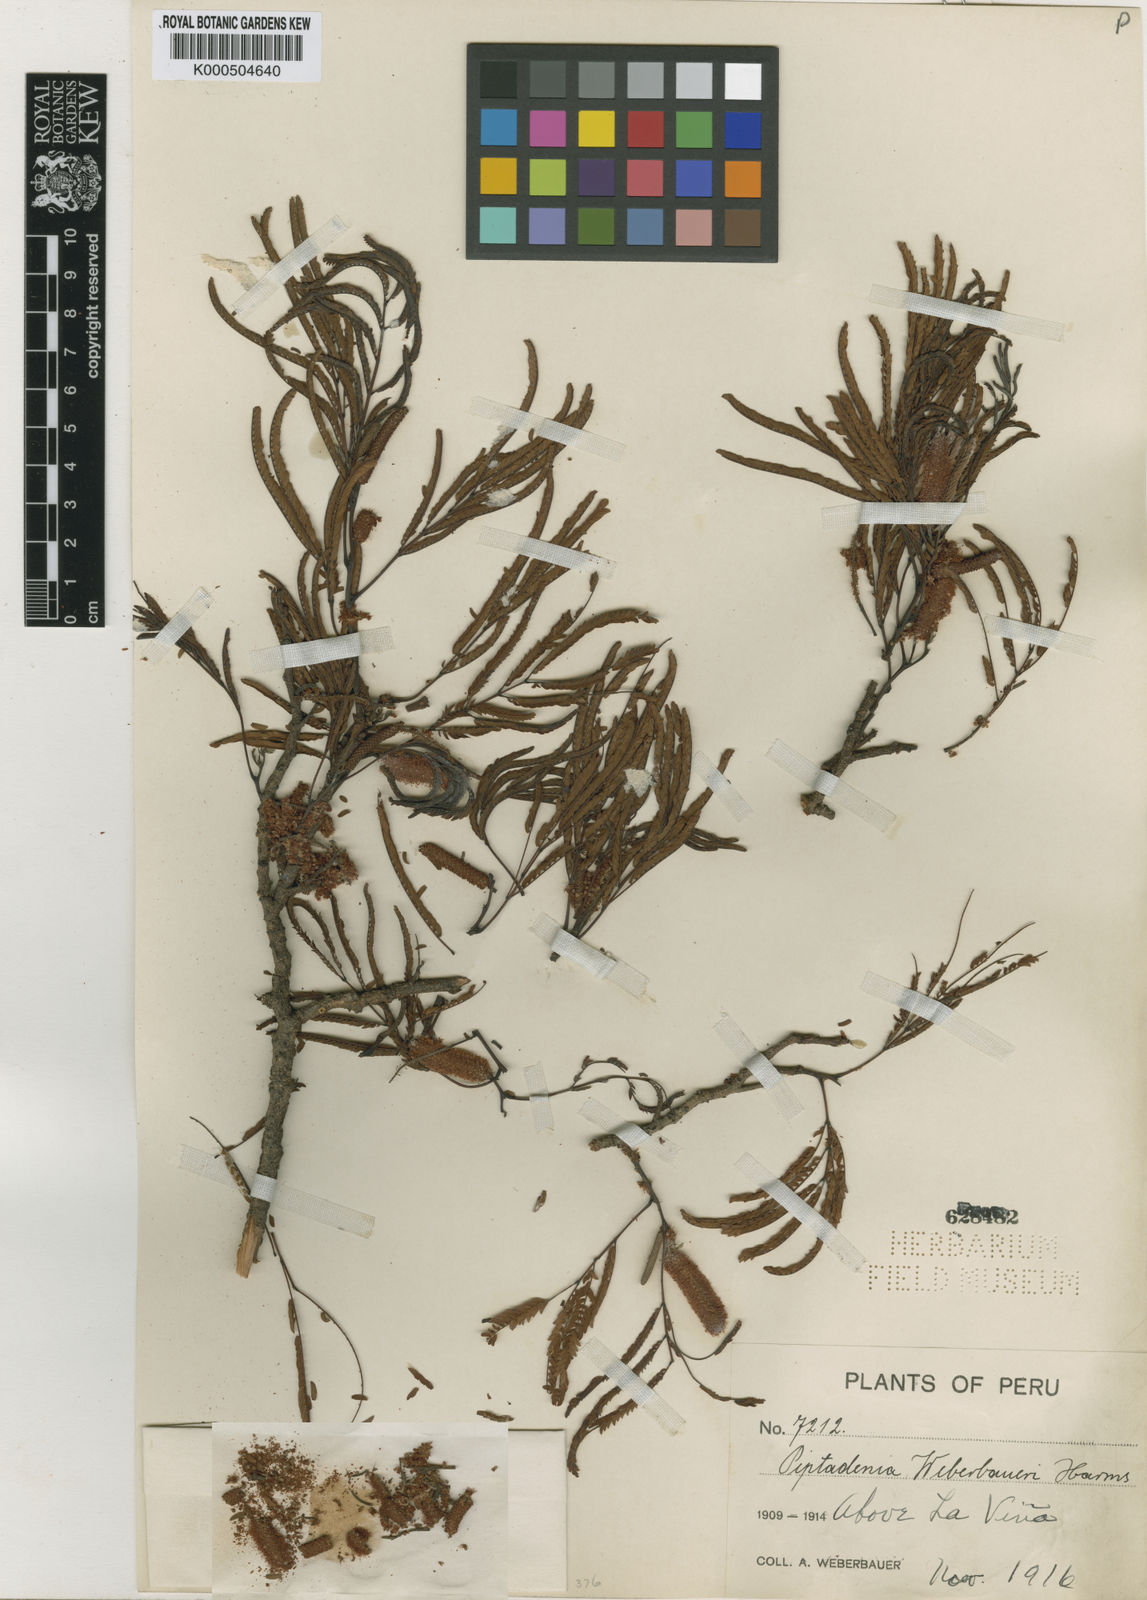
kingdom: Plantae
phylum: Tracheophyta
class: Magnoliopsida
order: Fabales
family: Fabaceae
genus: Piptadenia
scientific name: Piptadenia weberbaueri
